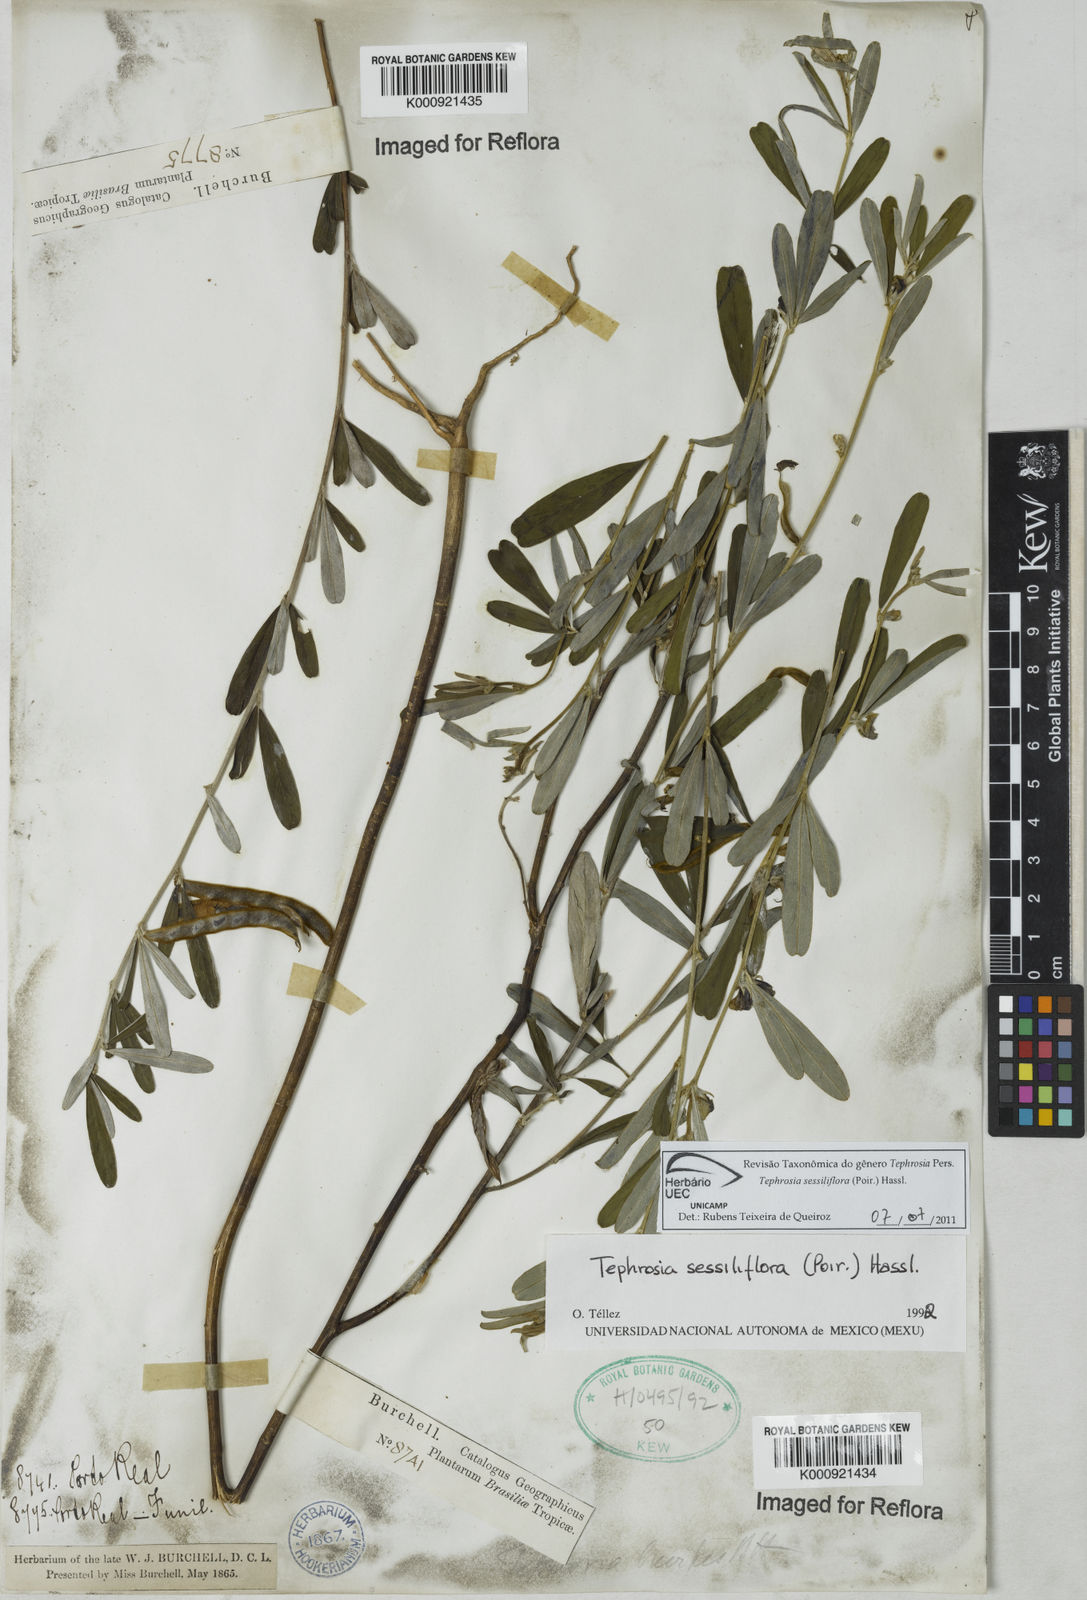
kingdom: Plantae
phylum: Tracheophyta
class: Magnoliopsida
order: Fabales
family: Fabaceae
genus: Tephrosia
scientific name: Tephrosia sessiliflora
